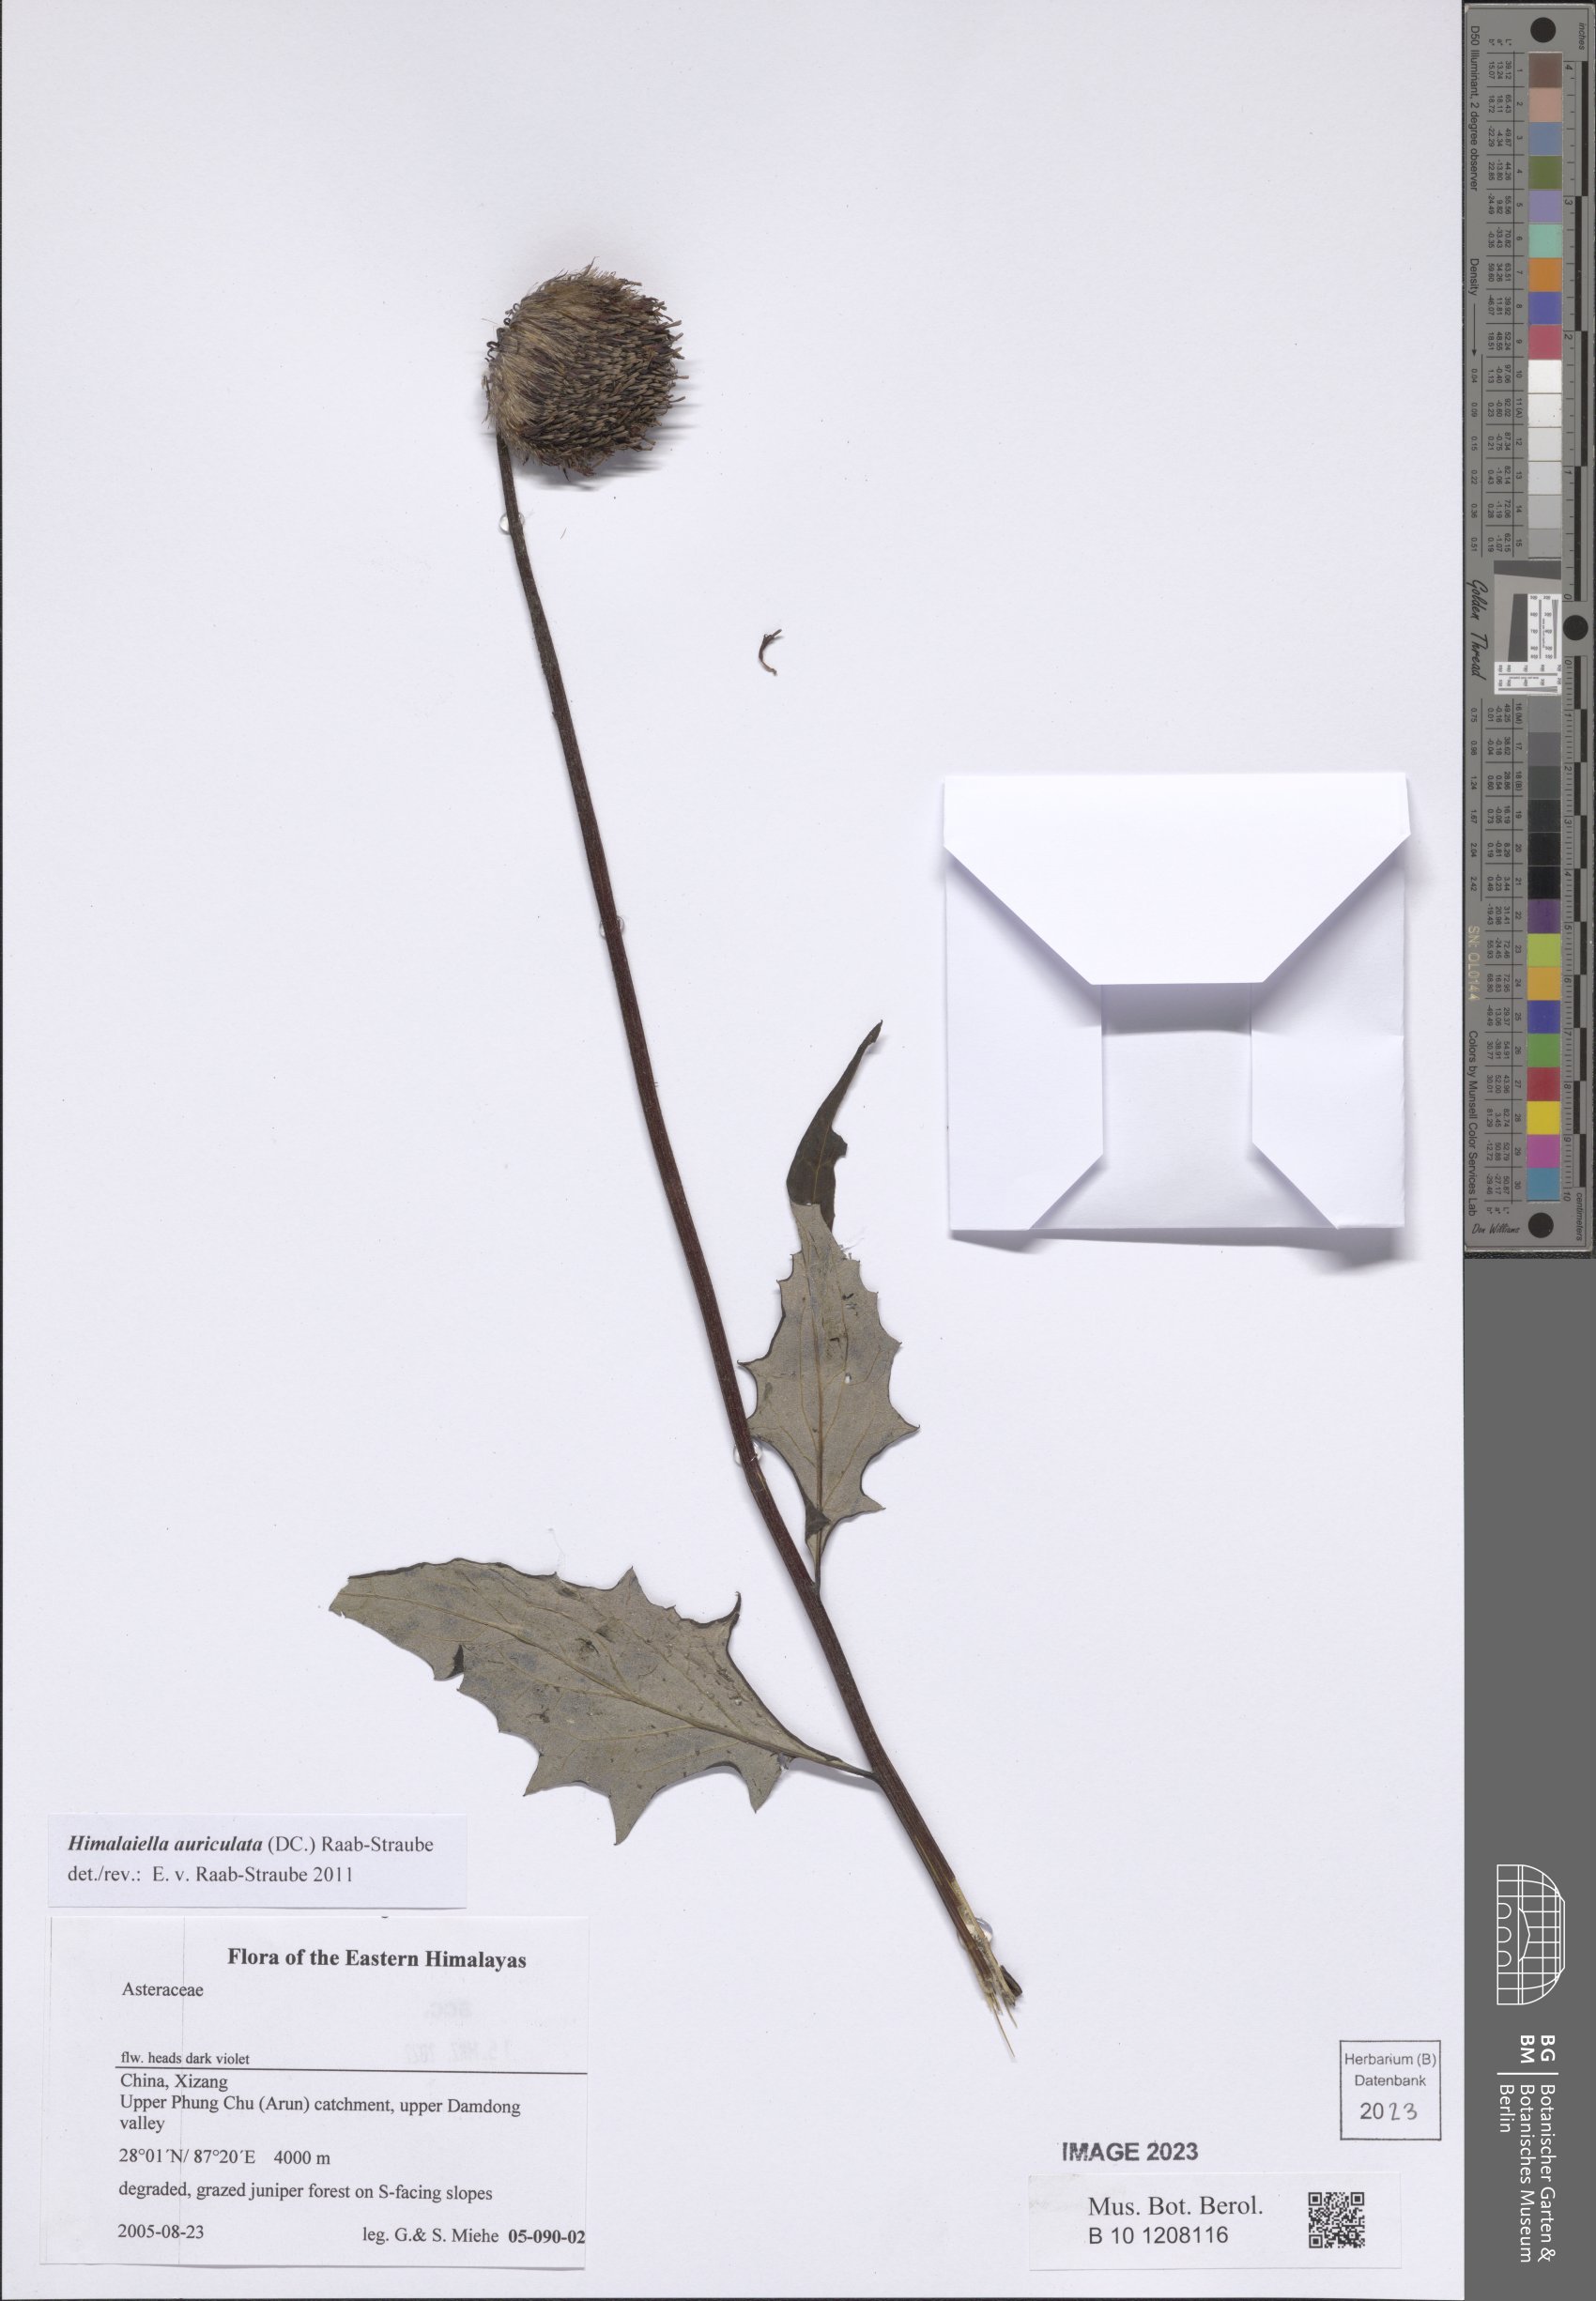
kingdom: Plantae
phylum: Tracheophyta
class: Magnoliopsida
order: Asterales
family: Asteraceae
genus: Jurinea
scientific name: Jurinea auriculata
